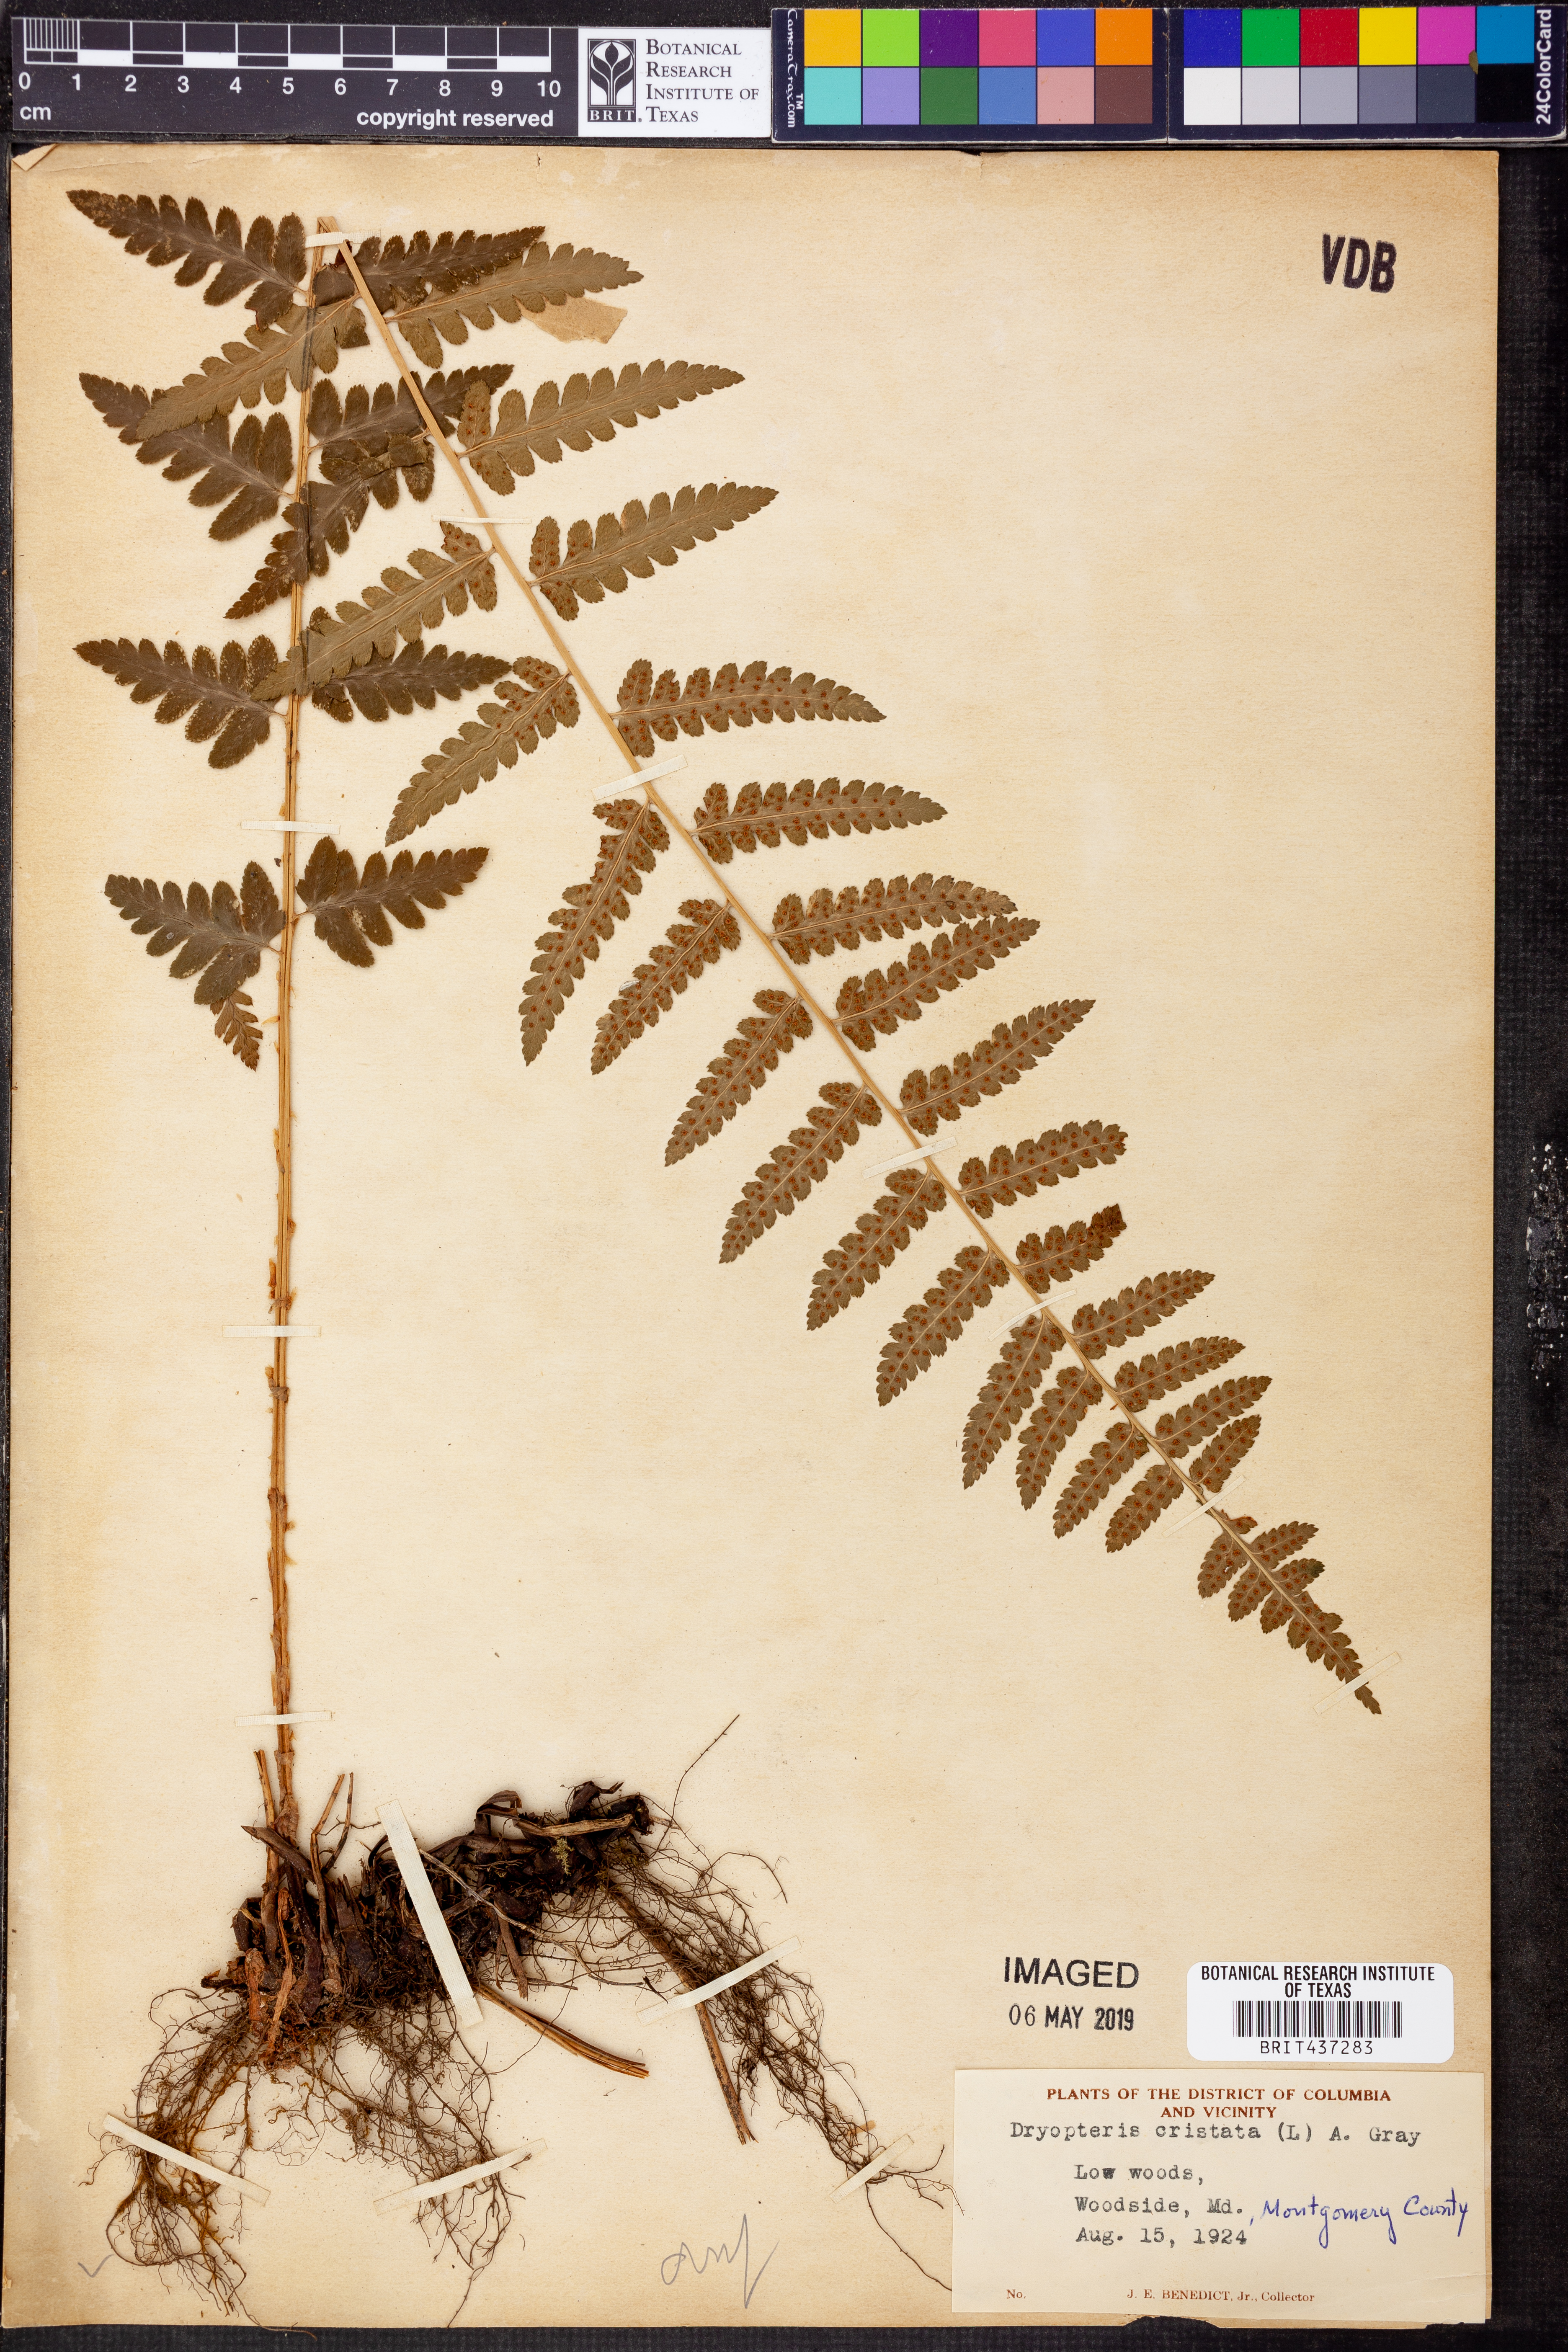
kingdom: Plantae
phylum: Tracheophyta
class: Polypodiopsida
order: Polypodiales
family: Dryopteridaceae
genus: Dryopteris
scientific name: Dryopteris cristata
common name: Crested wood fern
